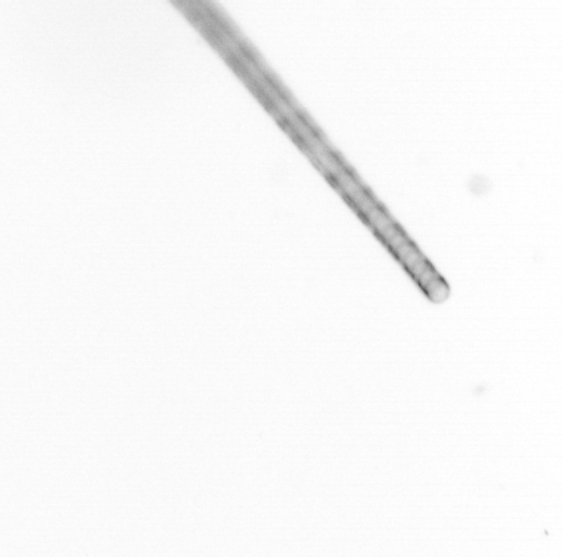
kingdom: Chromista
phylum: Ochrophyta
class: Bacillariophyceae
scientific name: Bacillariophyceae
